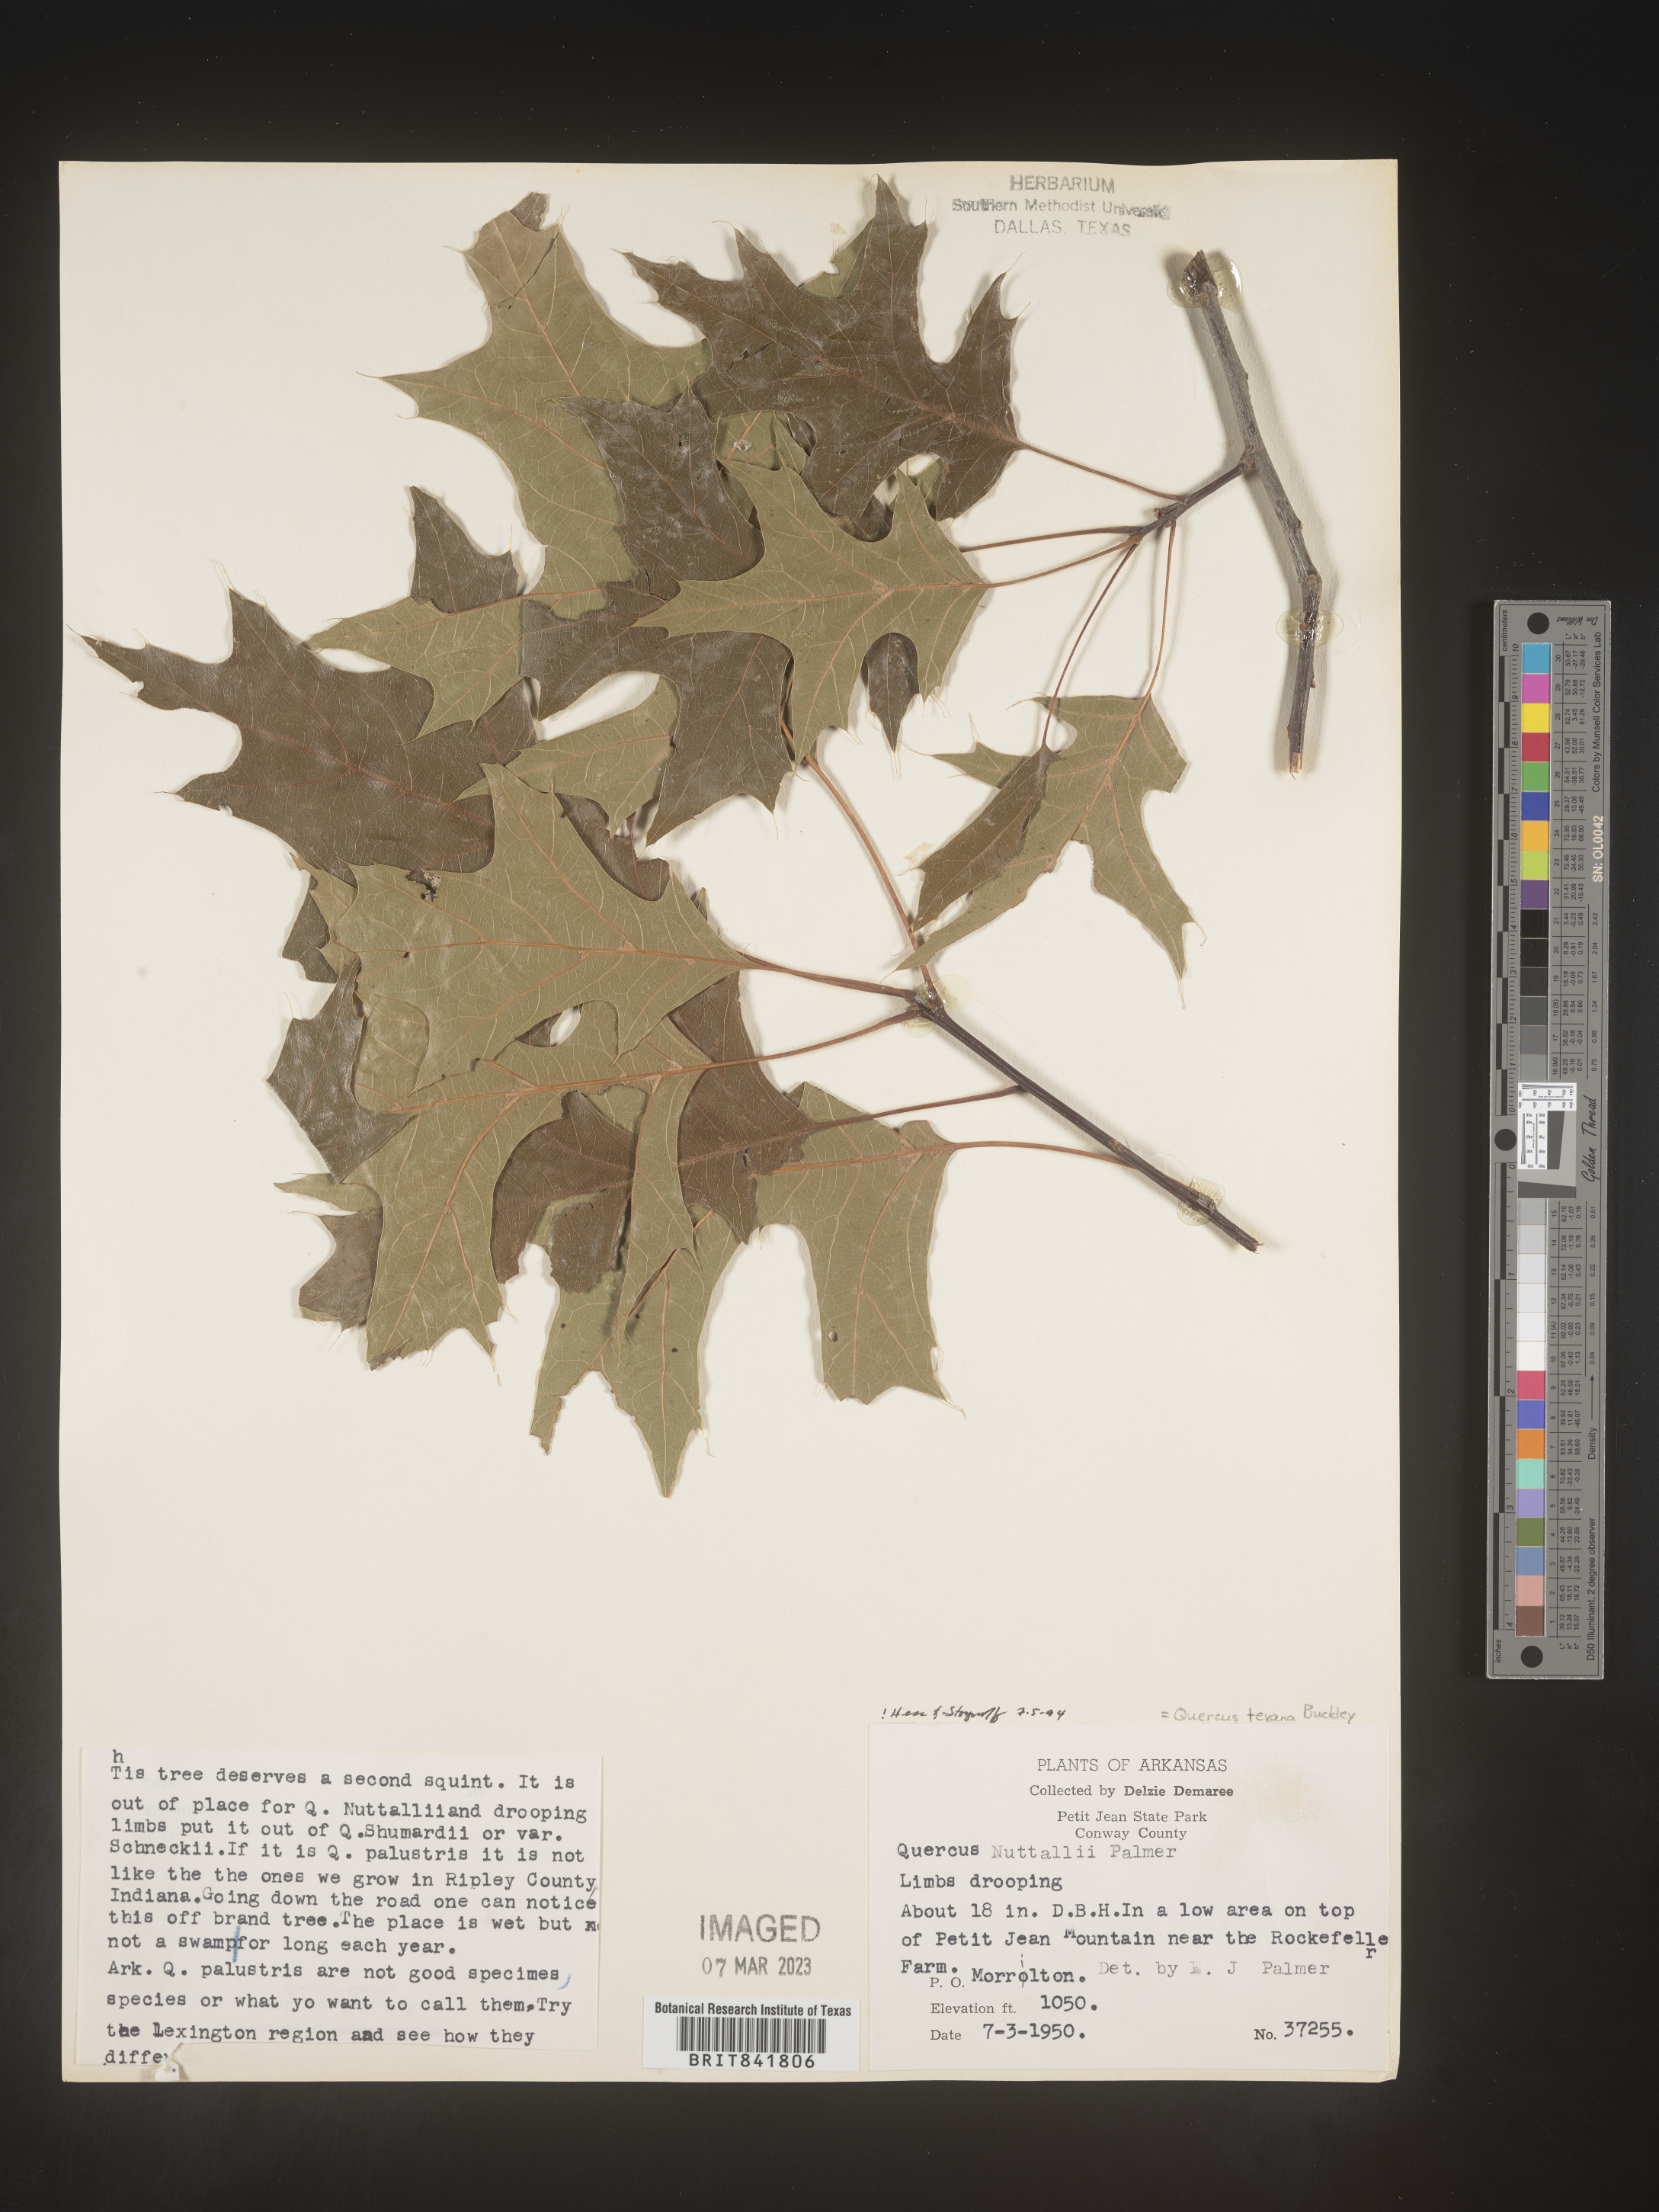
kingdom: Plantae
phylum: Tracheophyta
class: Magnoliopsida
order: Fagales
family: Fagaceae
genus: Quercus
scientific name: Quercus texana
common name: Nuttall oak
